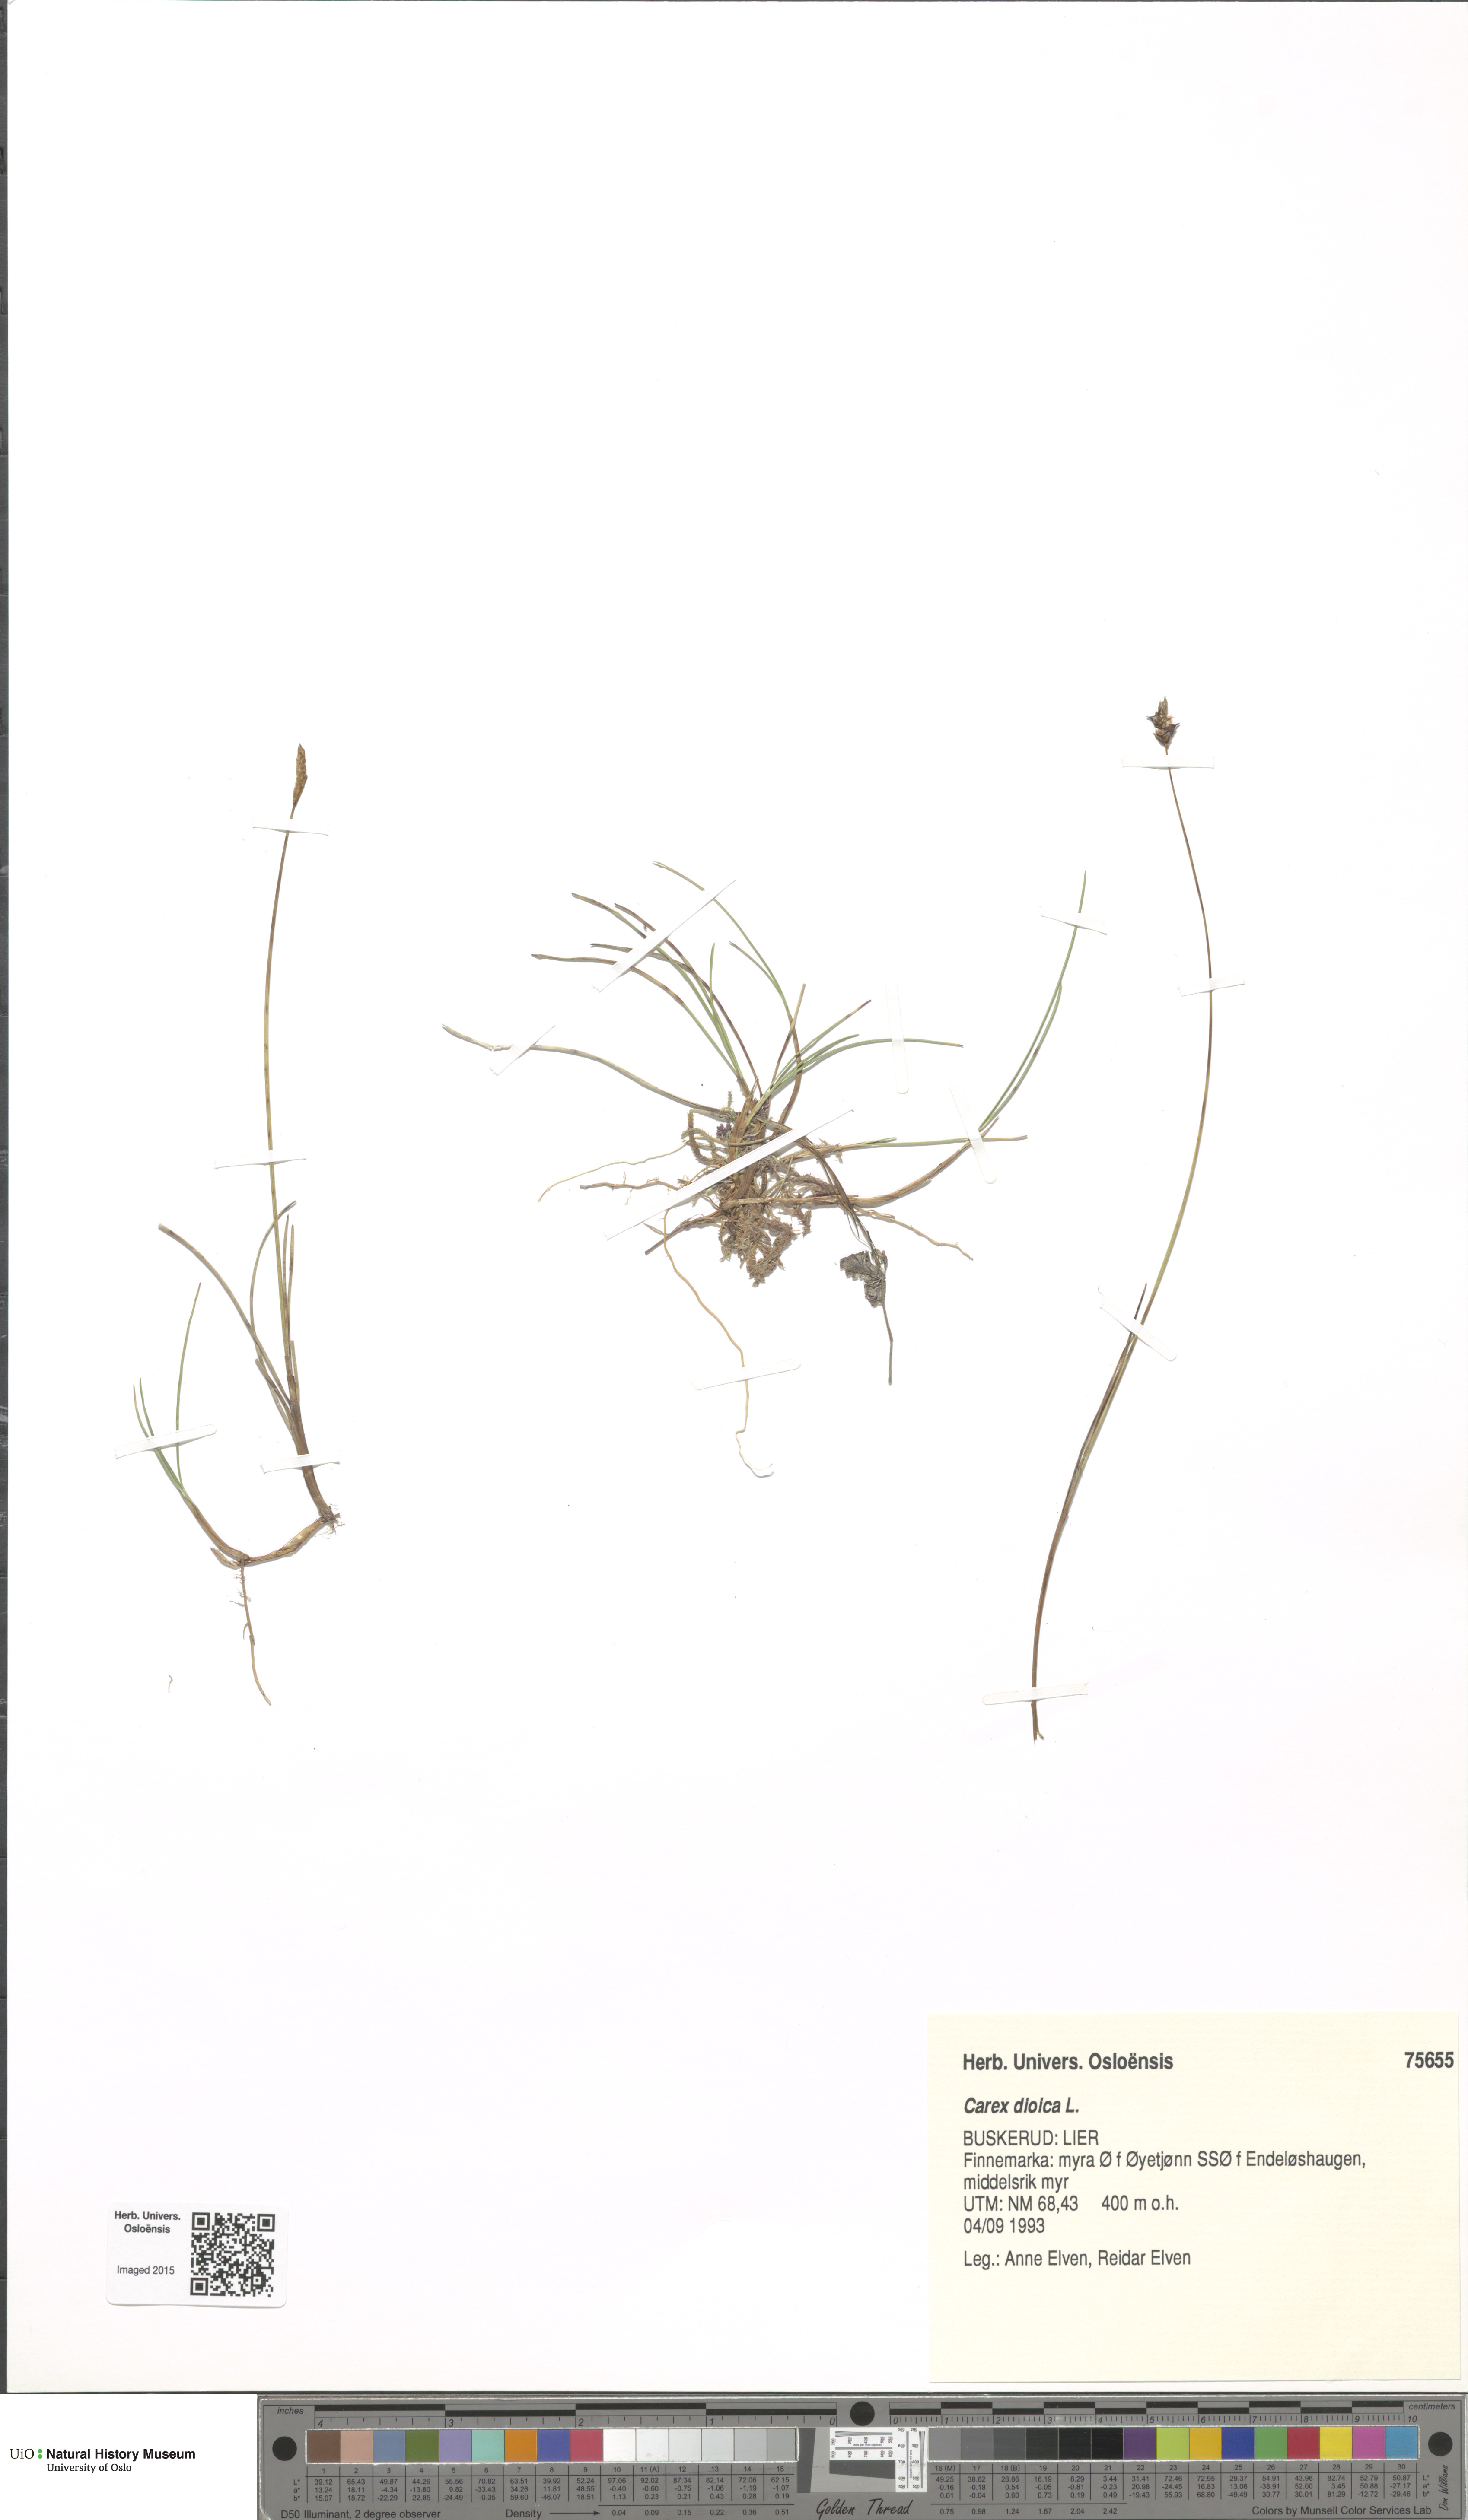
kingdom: Plantae
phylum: Tracheophyta
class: Liliopsida
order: Poales
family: Cyperaceae
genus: Carex
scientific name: Carex dioica
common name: Dioecious sedge
